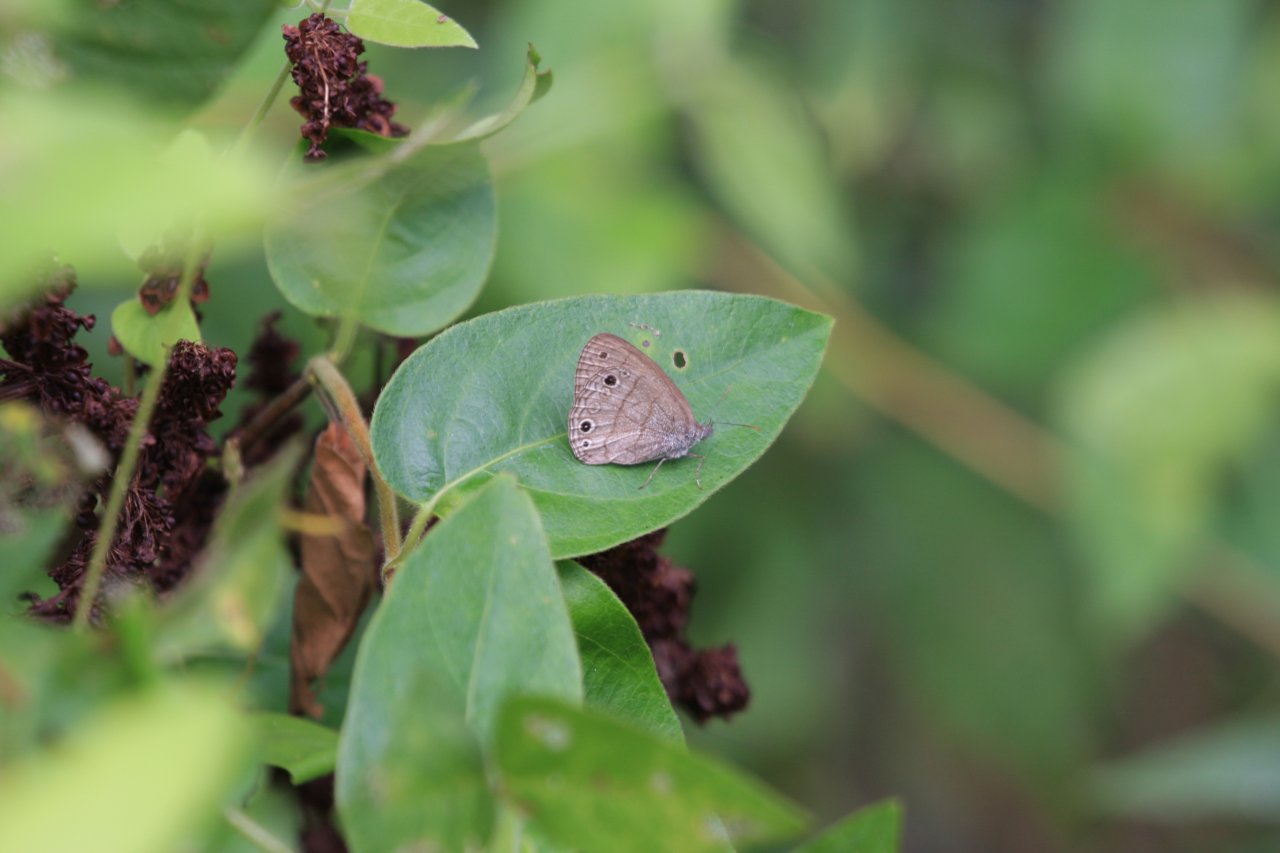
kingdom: Animalia
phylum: Arthropoda
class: Insecta
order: Lepidoptera
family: Nymphalidae
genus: Hermeuptychia
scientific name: Hermeuptychia hermes
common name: Carolina Satyr
